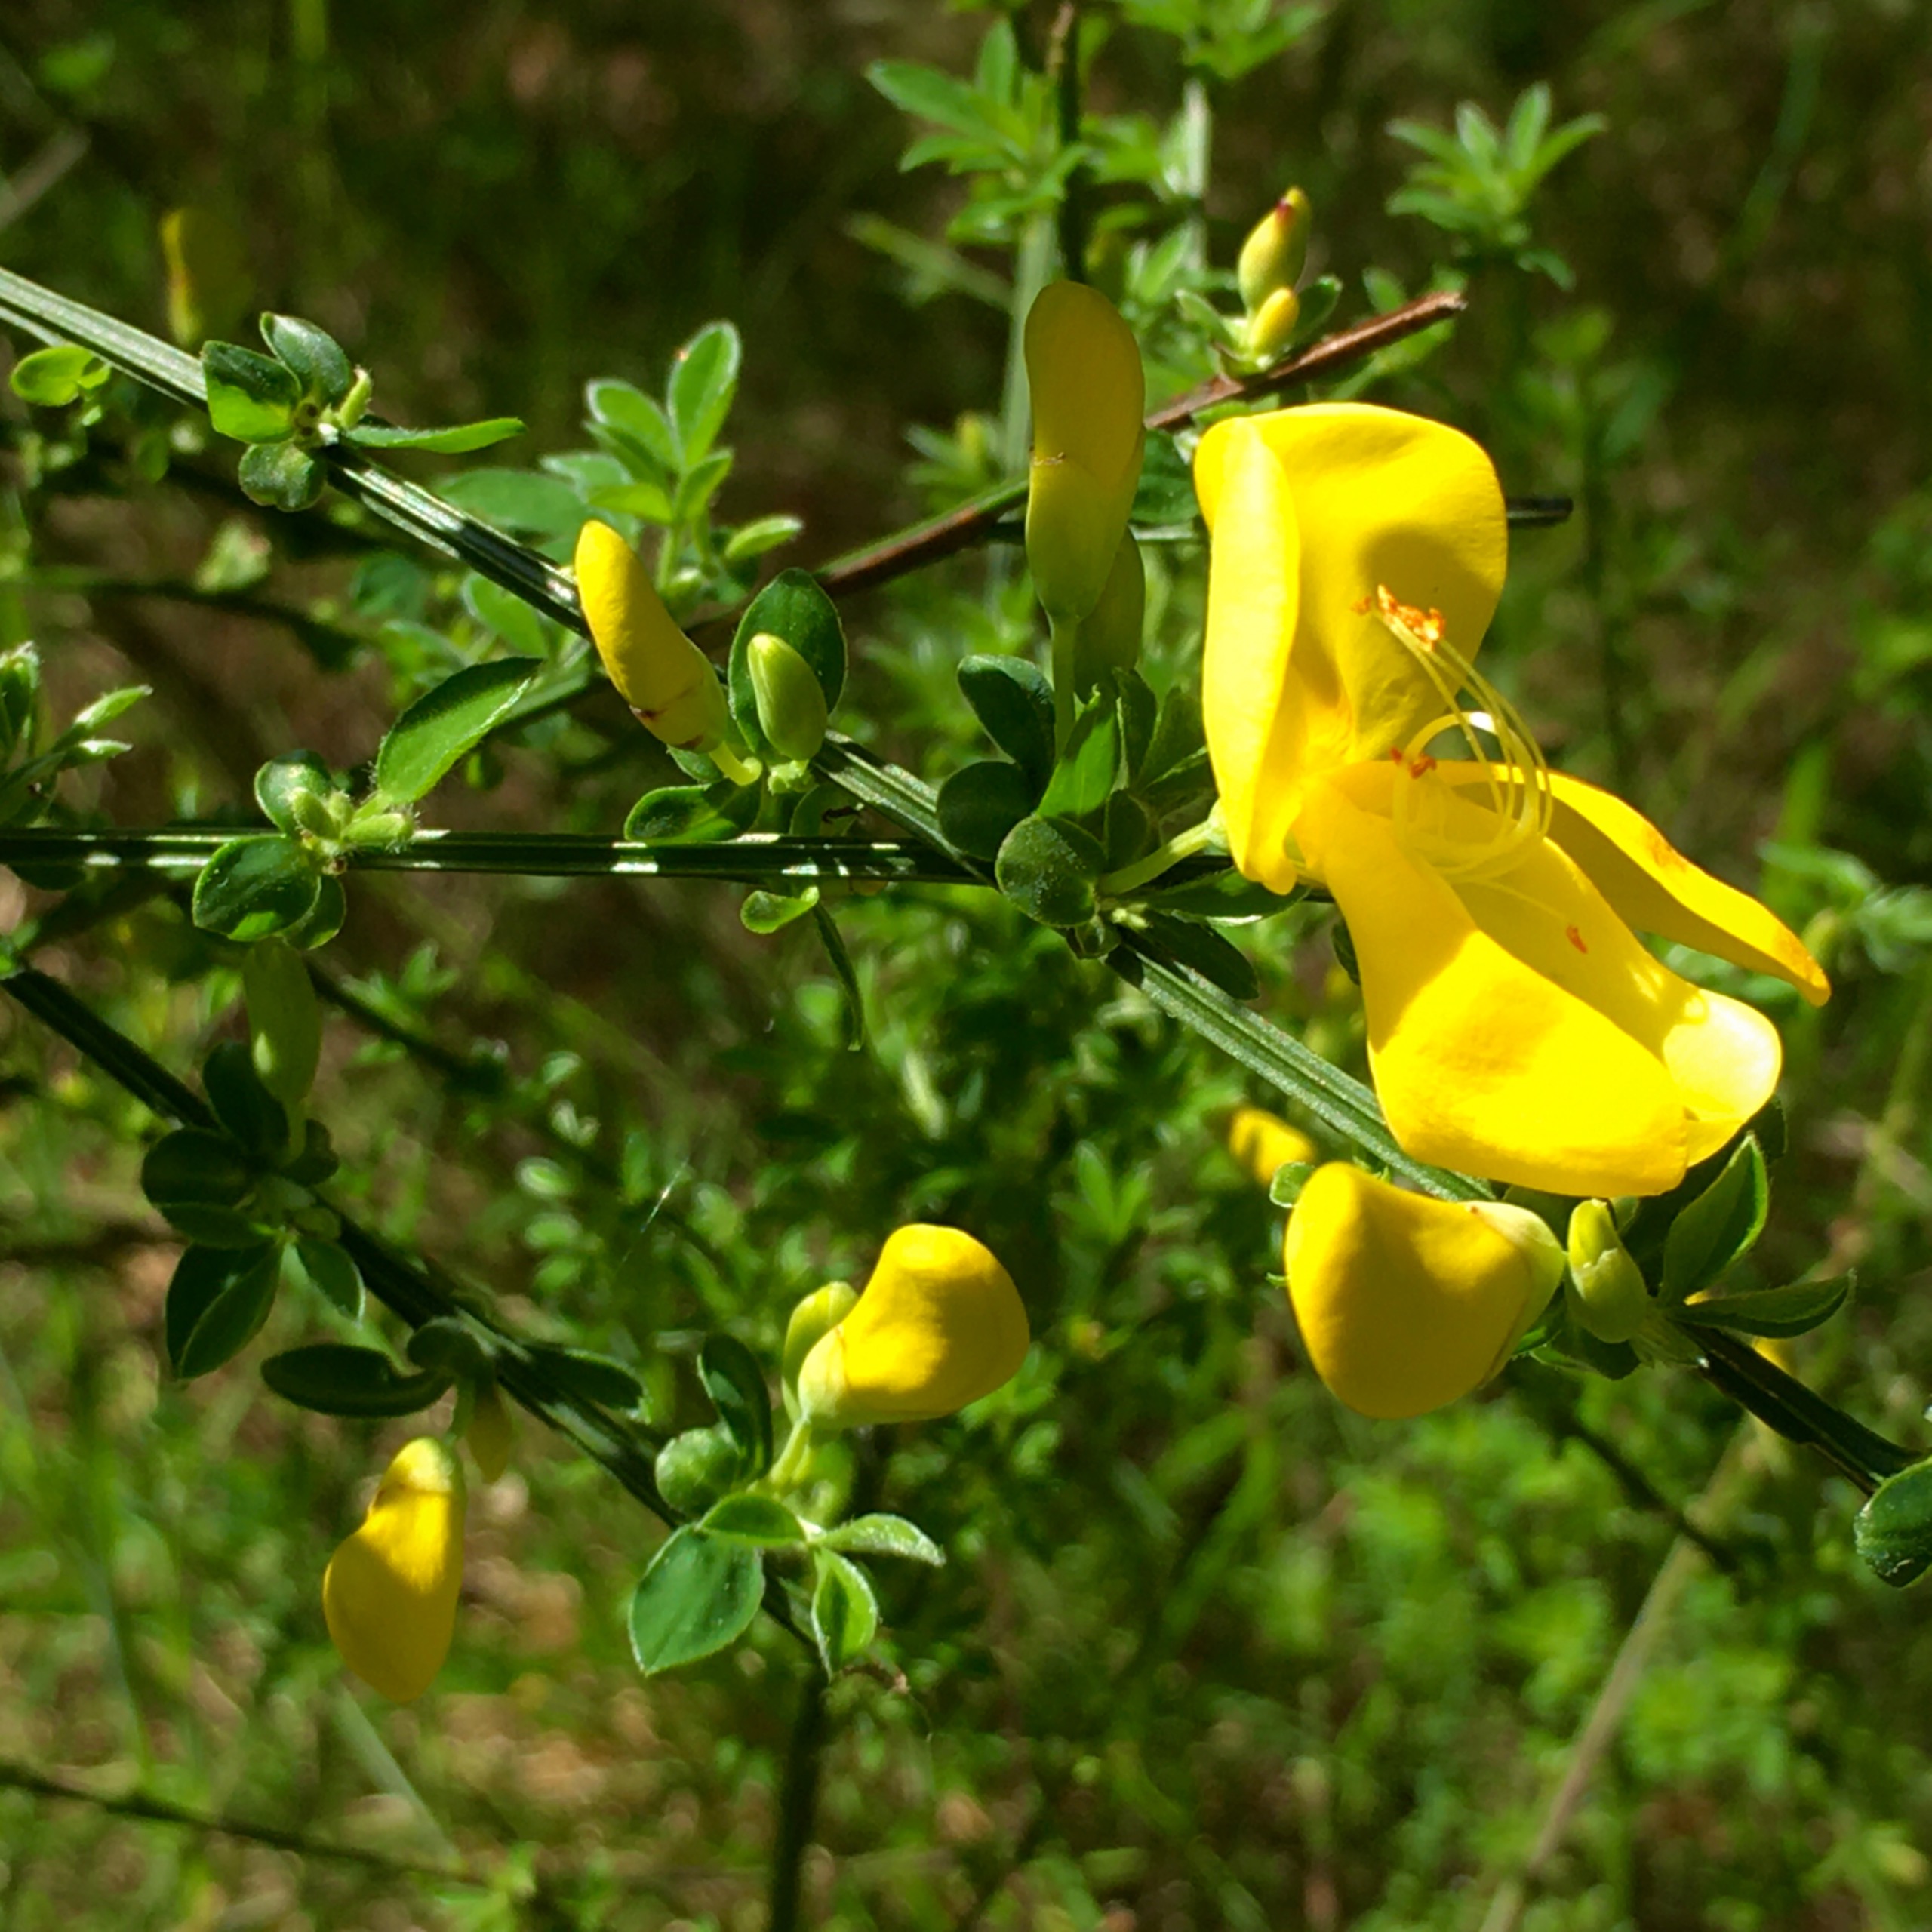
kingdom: Plantae
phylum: Tracheophyta
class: Magnoliopsida
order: Fabales
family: Fabaceae
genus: Cytisus
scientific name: Cytisus scoparius
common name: Almindelig gyvel
